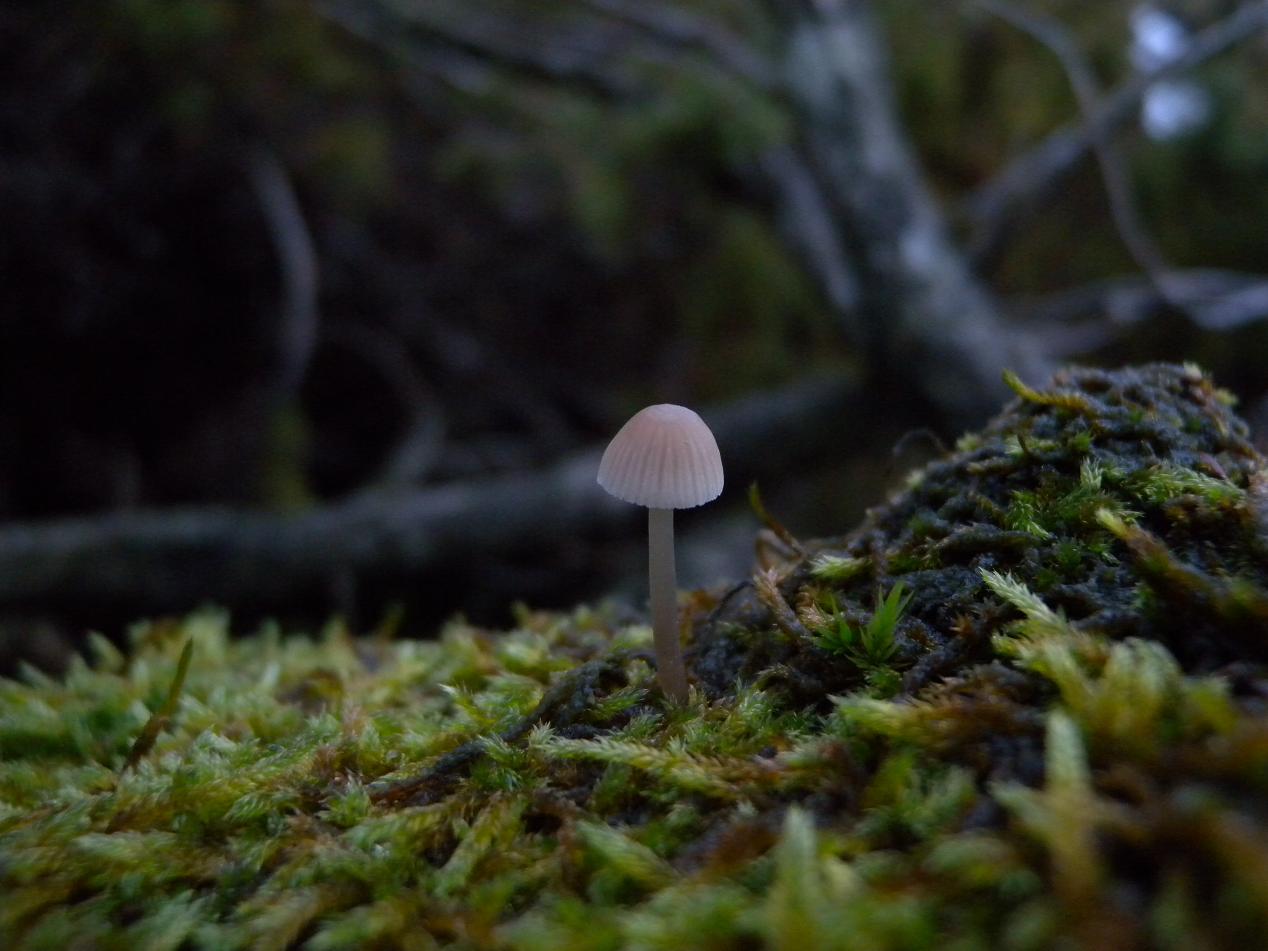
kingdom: Fungi
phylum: Basidiomycota
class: Agaricomycetes
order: Agaricales
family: Mycenaceae
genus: Mycena
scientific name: Mycena metata
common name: rødlig huesvamp
